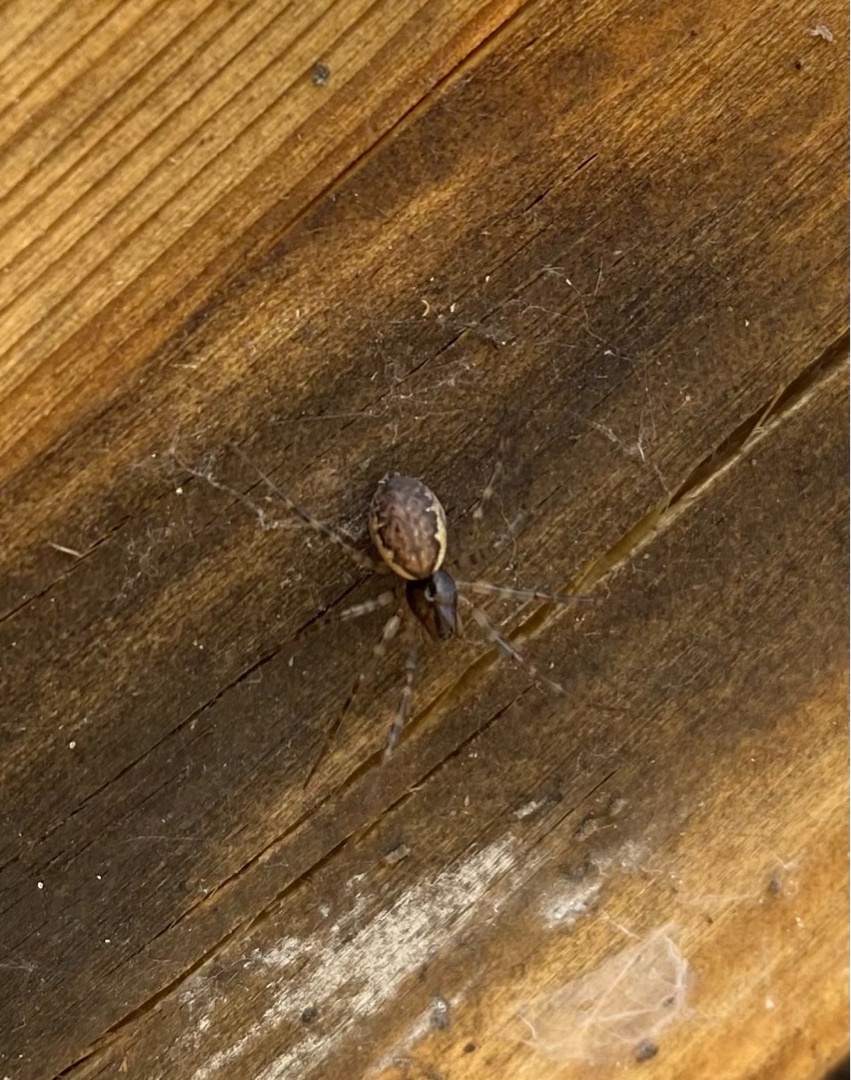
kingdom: Animalia
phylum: Arthropoda
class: Arachnida
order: Araneae
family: Linyphiidae
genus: Neriene
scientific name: Neriene montana
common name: Buskbaldakinspinder
